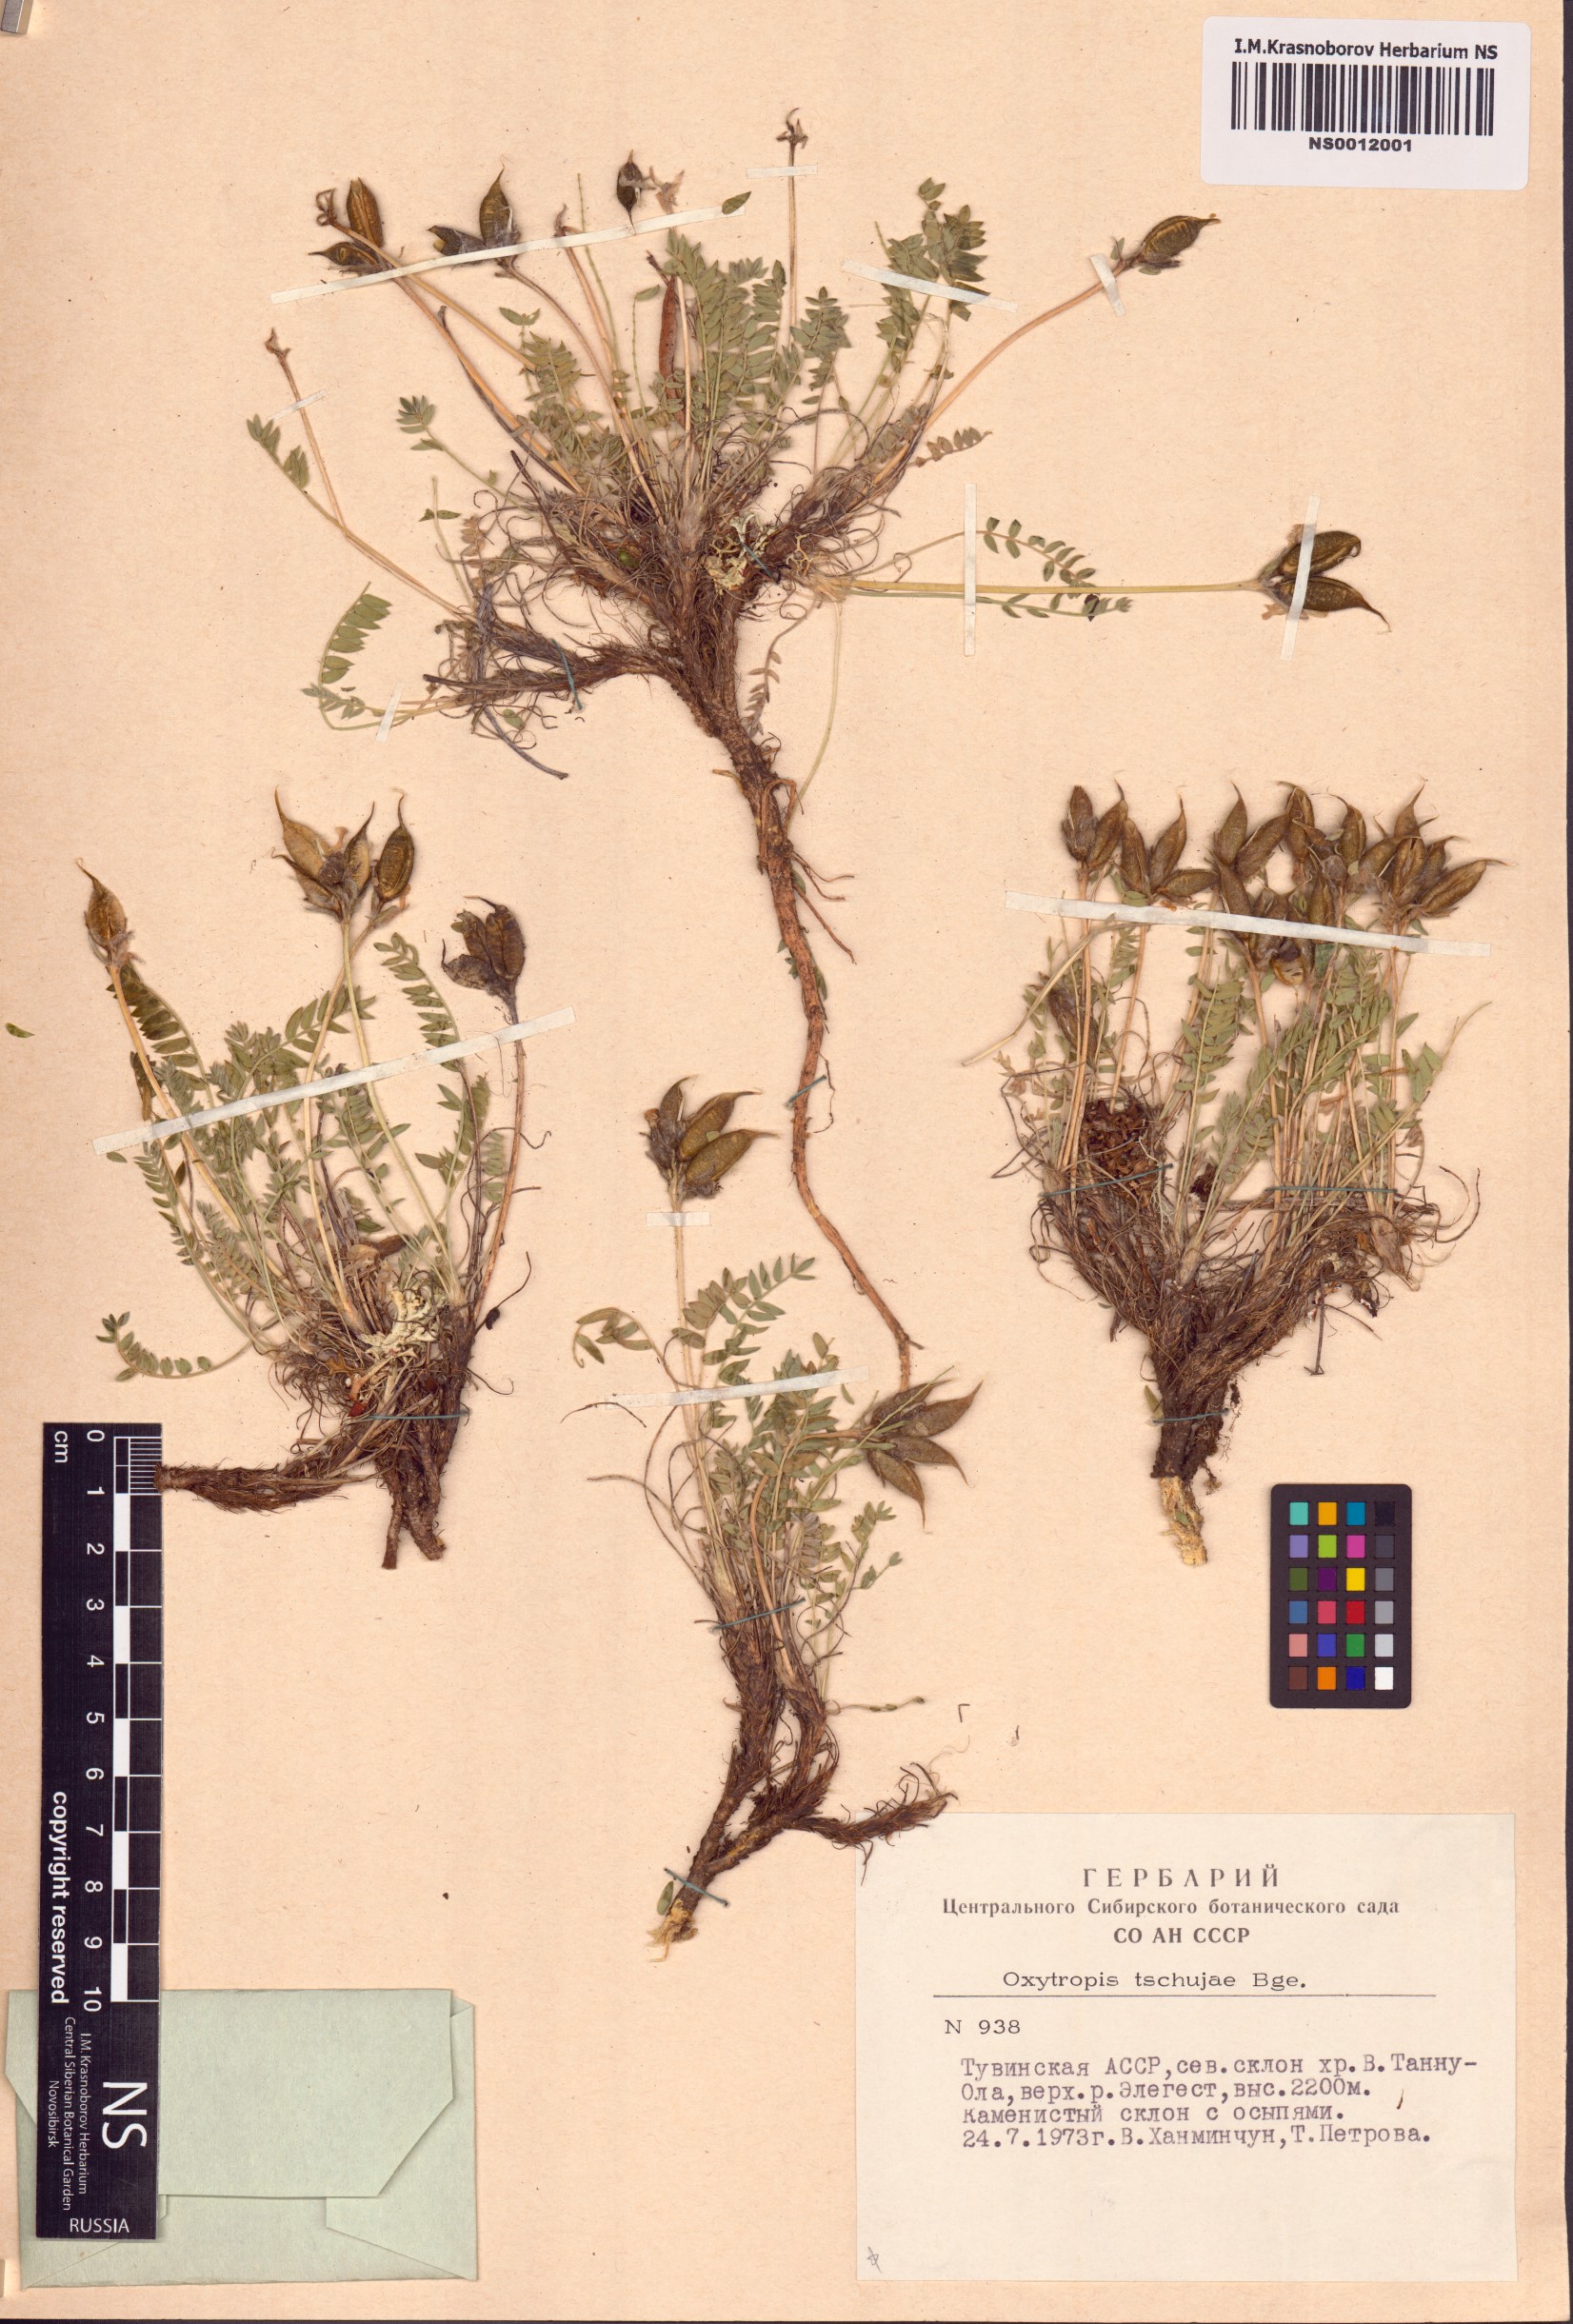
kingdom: Plantae
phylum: Tracheophyta
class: Magnoliopsida
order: Fabales
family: Fabaceae
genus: Oxytropis
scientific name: Oxytropis tschujae
